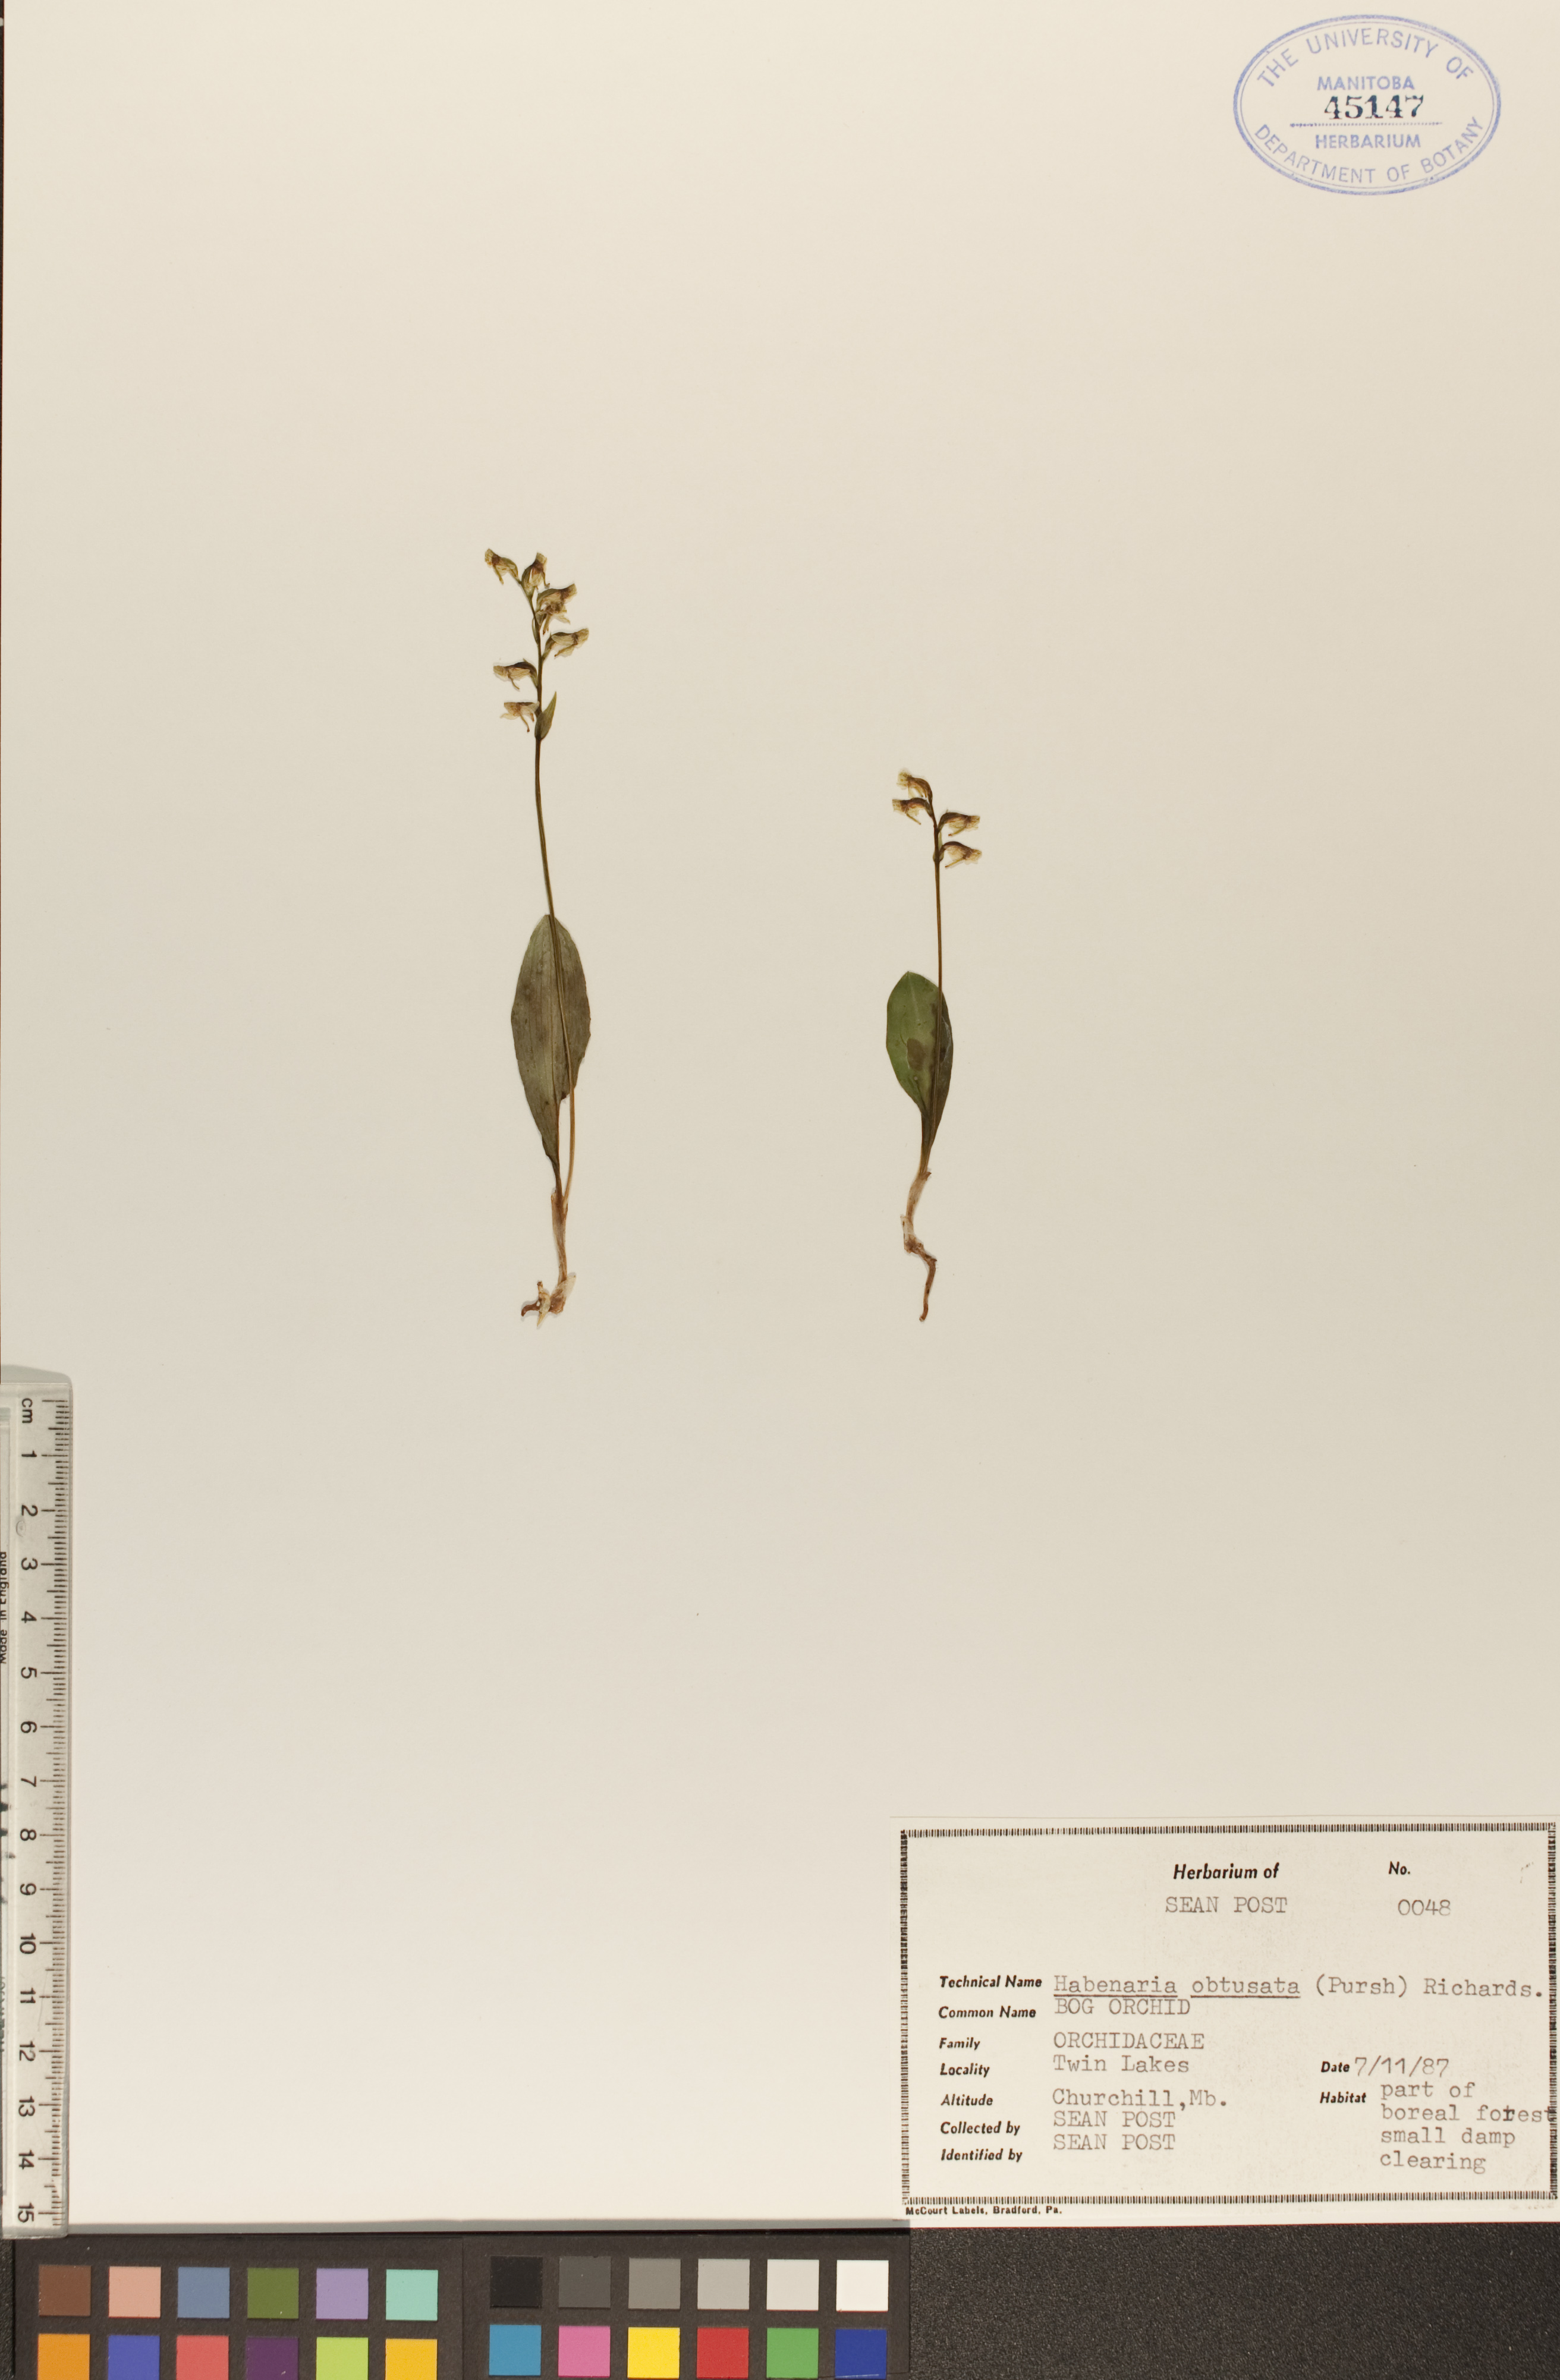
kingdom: Plantae
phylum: Tracheophyta
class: Liliopsida
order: Asparagales
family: Orchidaceae
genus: Platanthera
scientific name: Platanthera obtusata
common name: Blunt bog orchid
